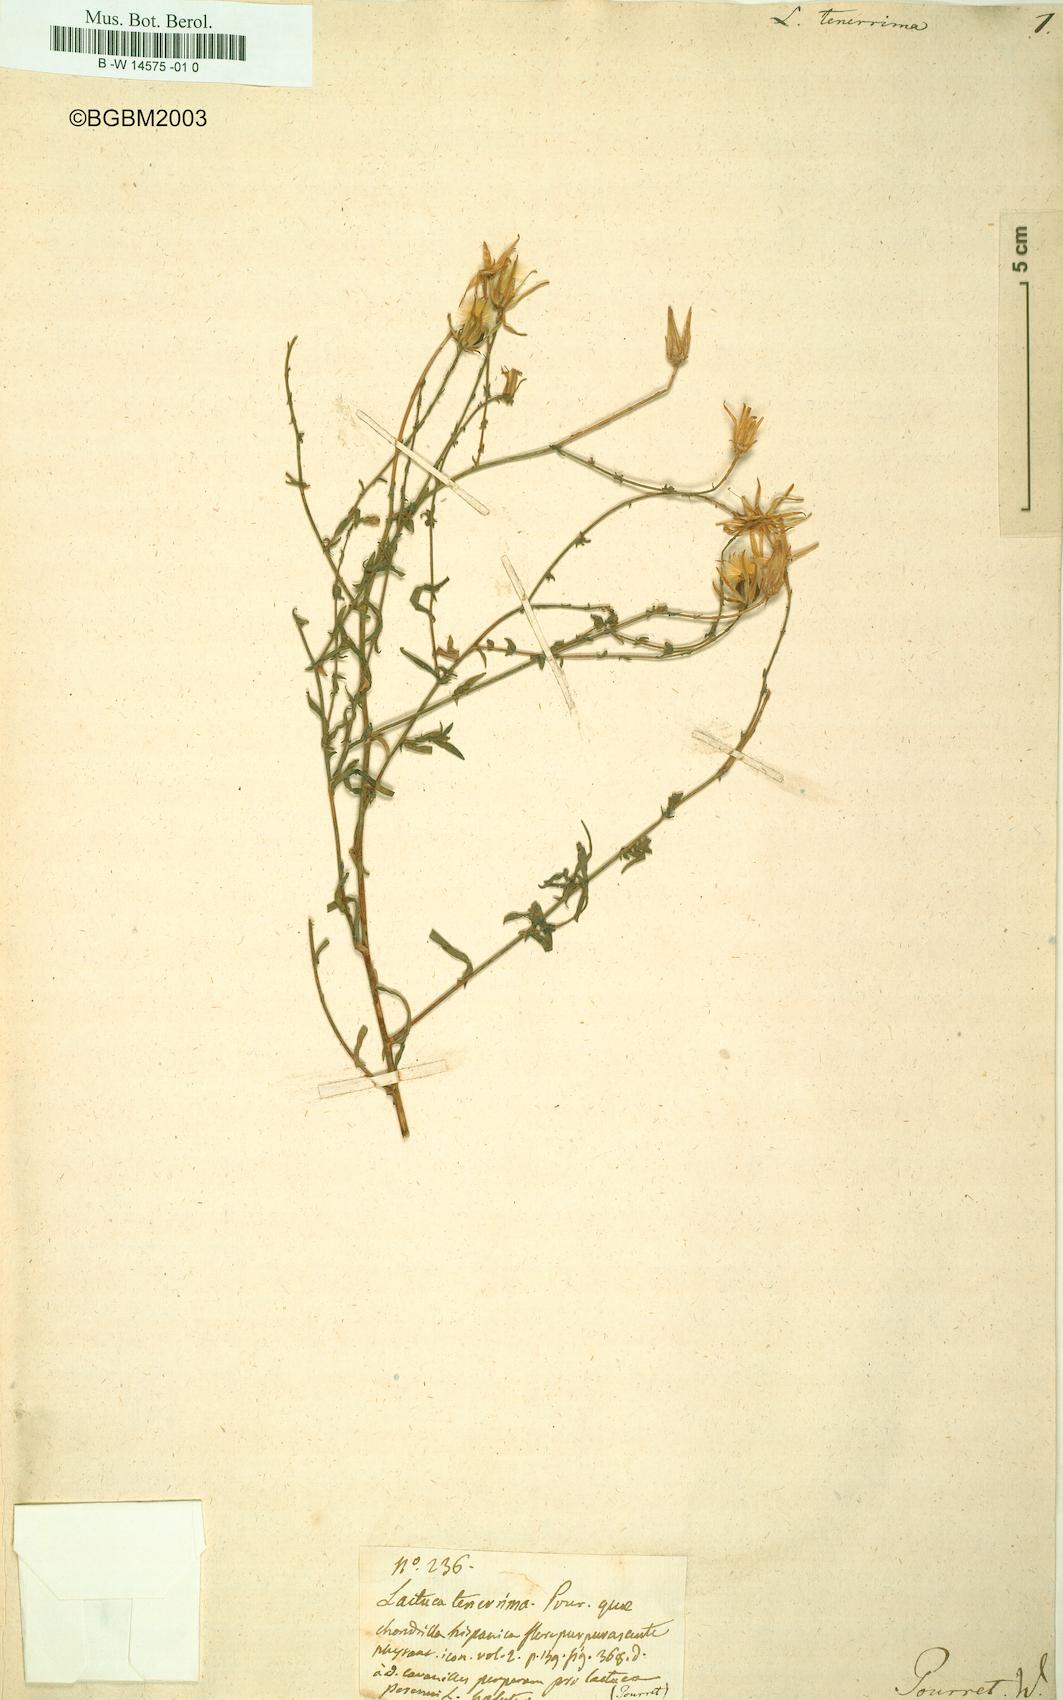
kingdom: Plantae
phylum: Tracheophyta
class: Magnoliopsida
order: Asterales
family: Asteraceae
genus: Lactuca
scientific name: Lactuca tenerrima
